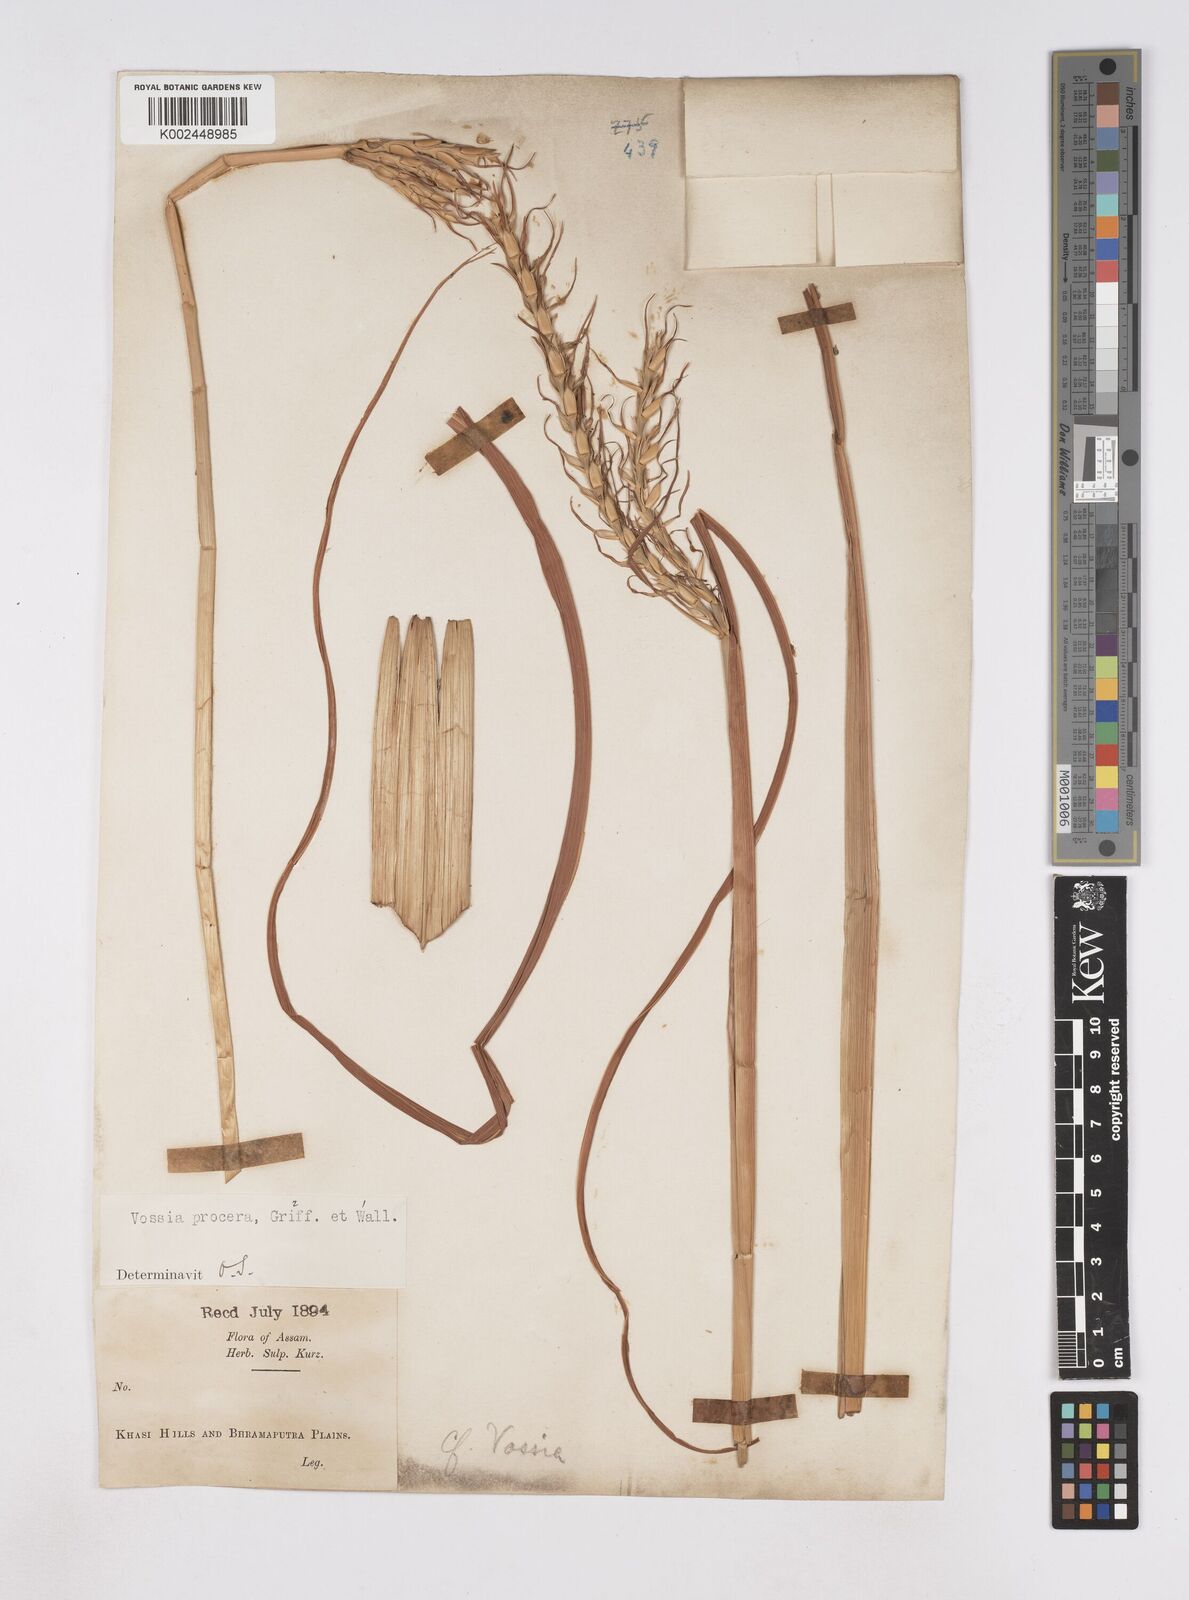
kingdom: Plantae
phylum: Tracheophyta
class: Liliopsida
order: Poales
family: Poaceae
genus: Vossia
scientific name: Vossia cuspidata
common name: Hippo grass
